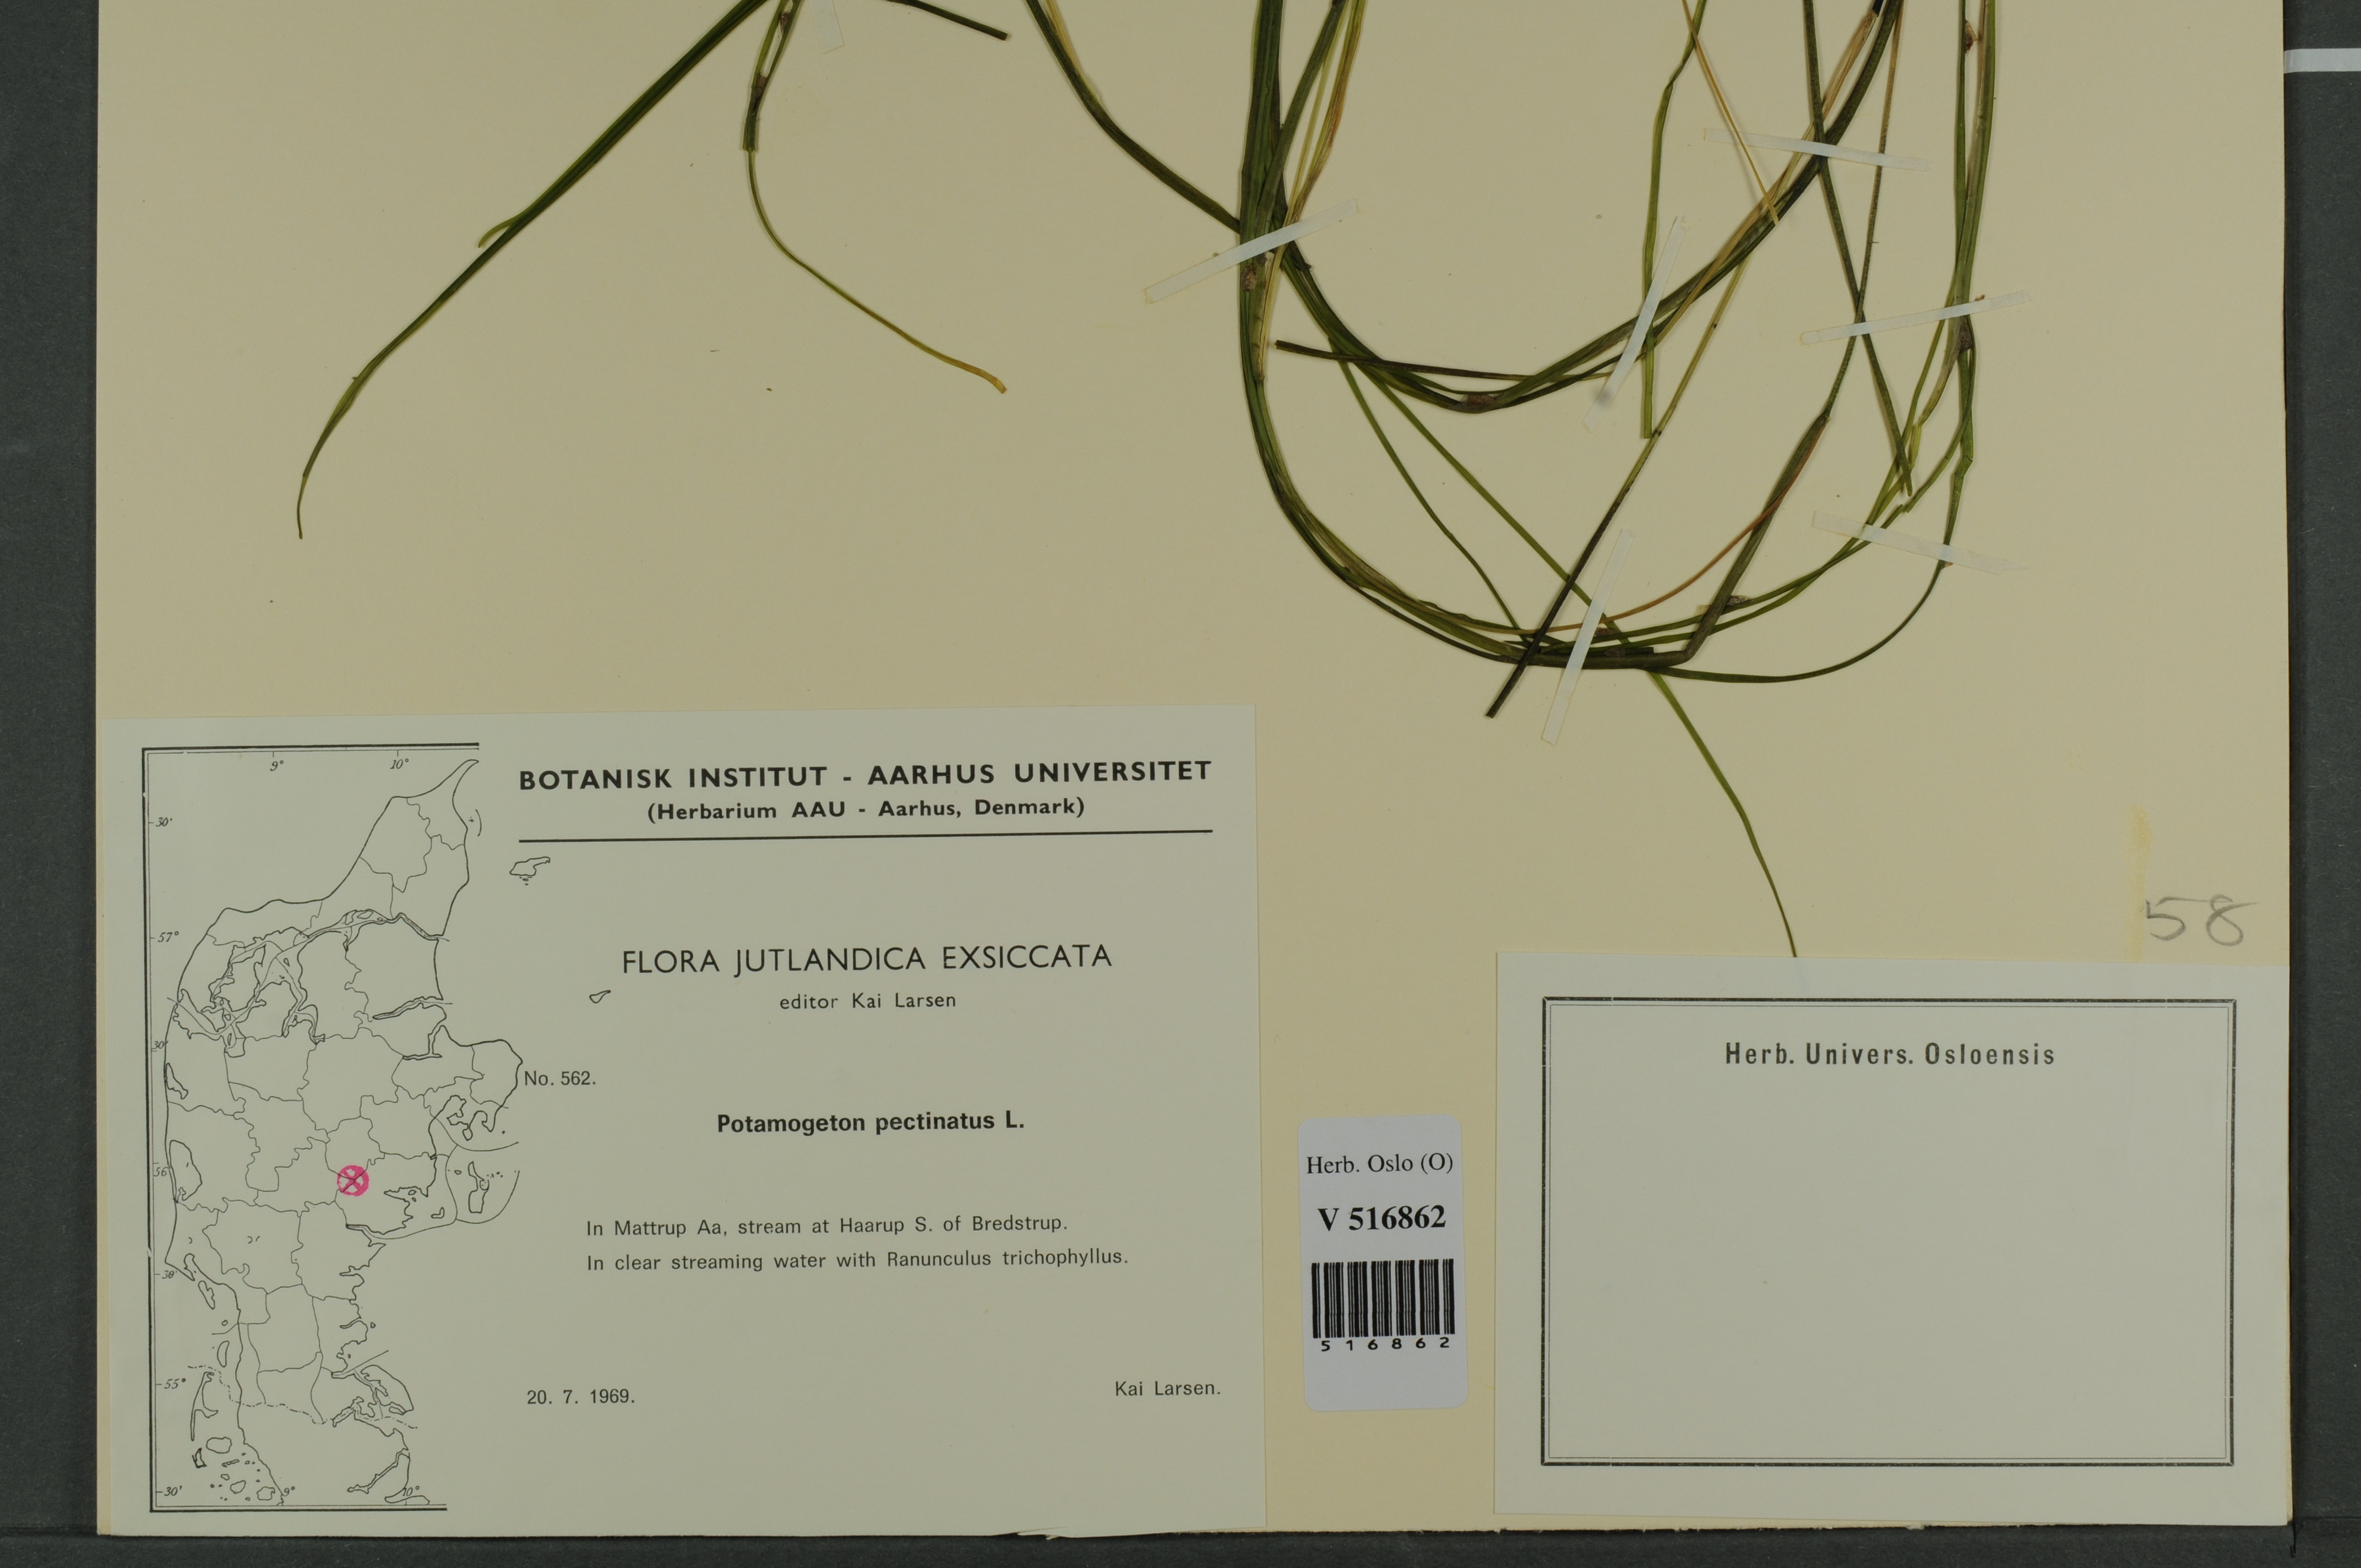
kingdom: Plantae
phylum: Tracheophyta
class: Liliopsida
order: Alismatales
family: Potamogetonaceae
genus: Stuckenia
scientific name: Stuckenia pectinata
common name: Sago pondweed
